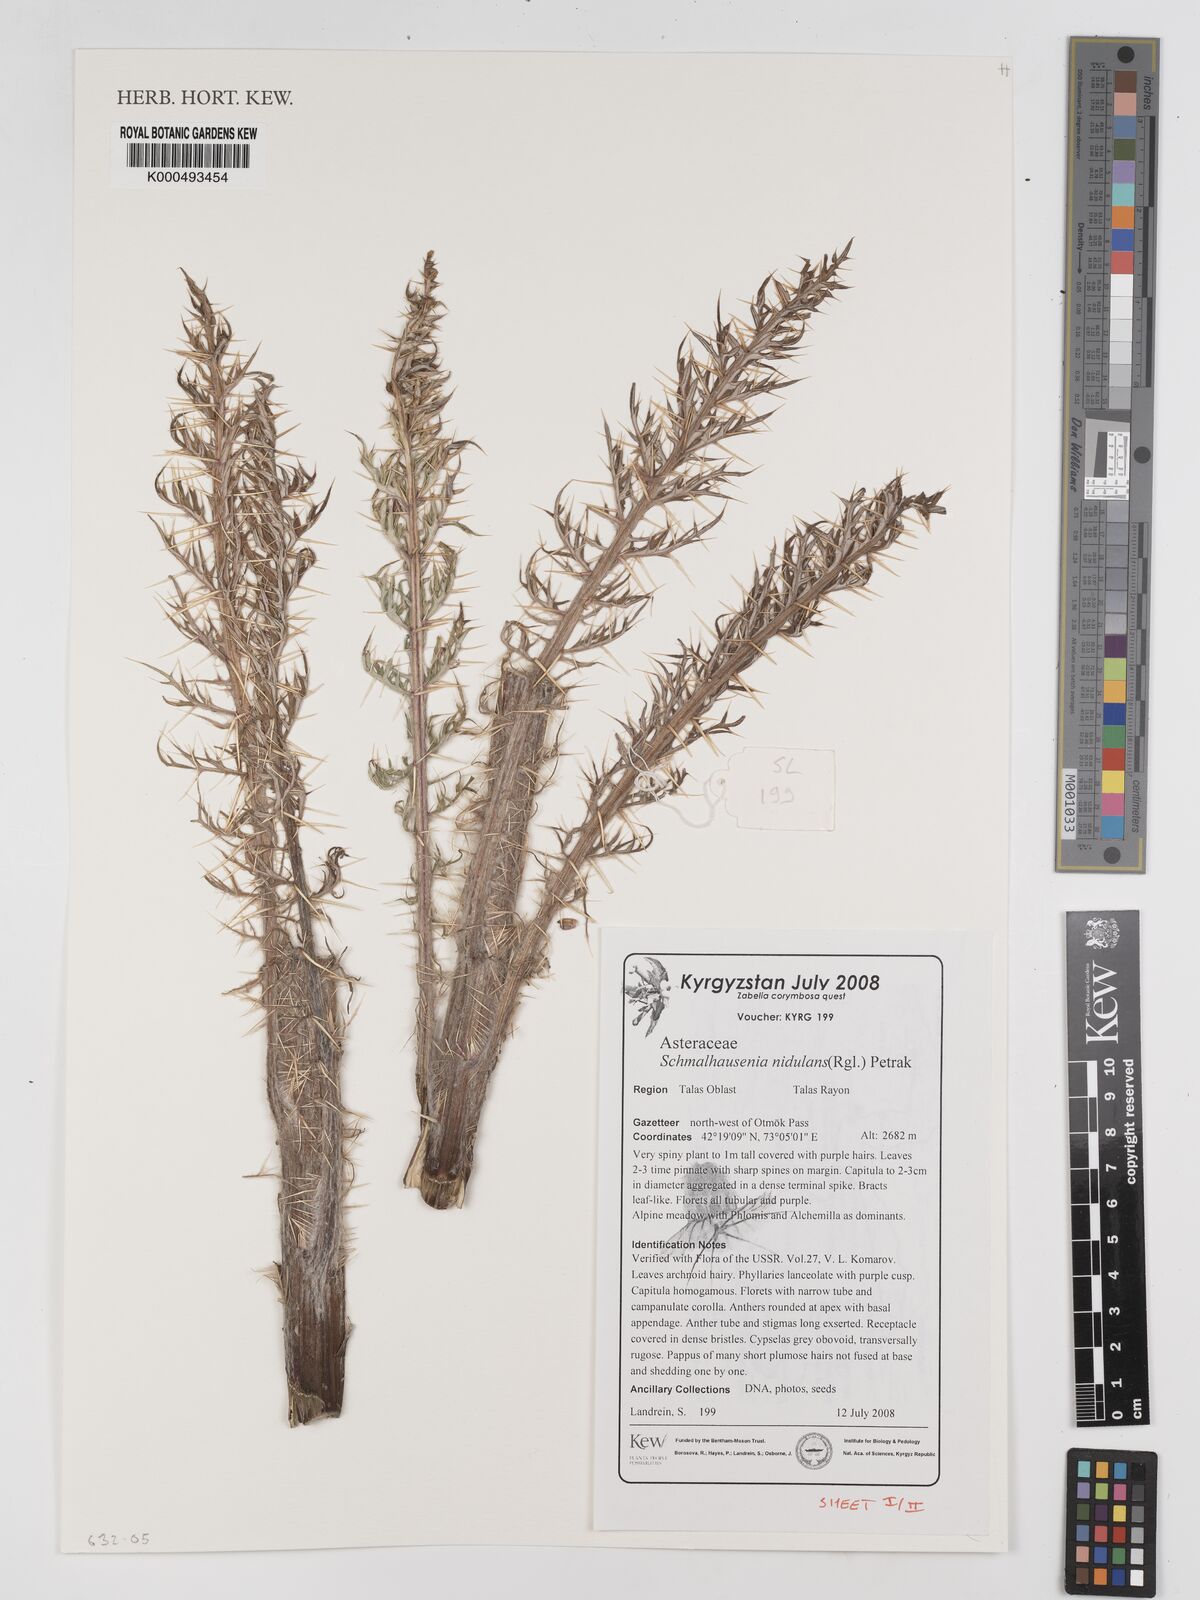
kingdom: Plantae
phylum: Tracheophyta
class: Magnoliopsida
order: Asterales
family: Asteraceae
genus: Olgaea
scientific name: Olgaea nidulans
